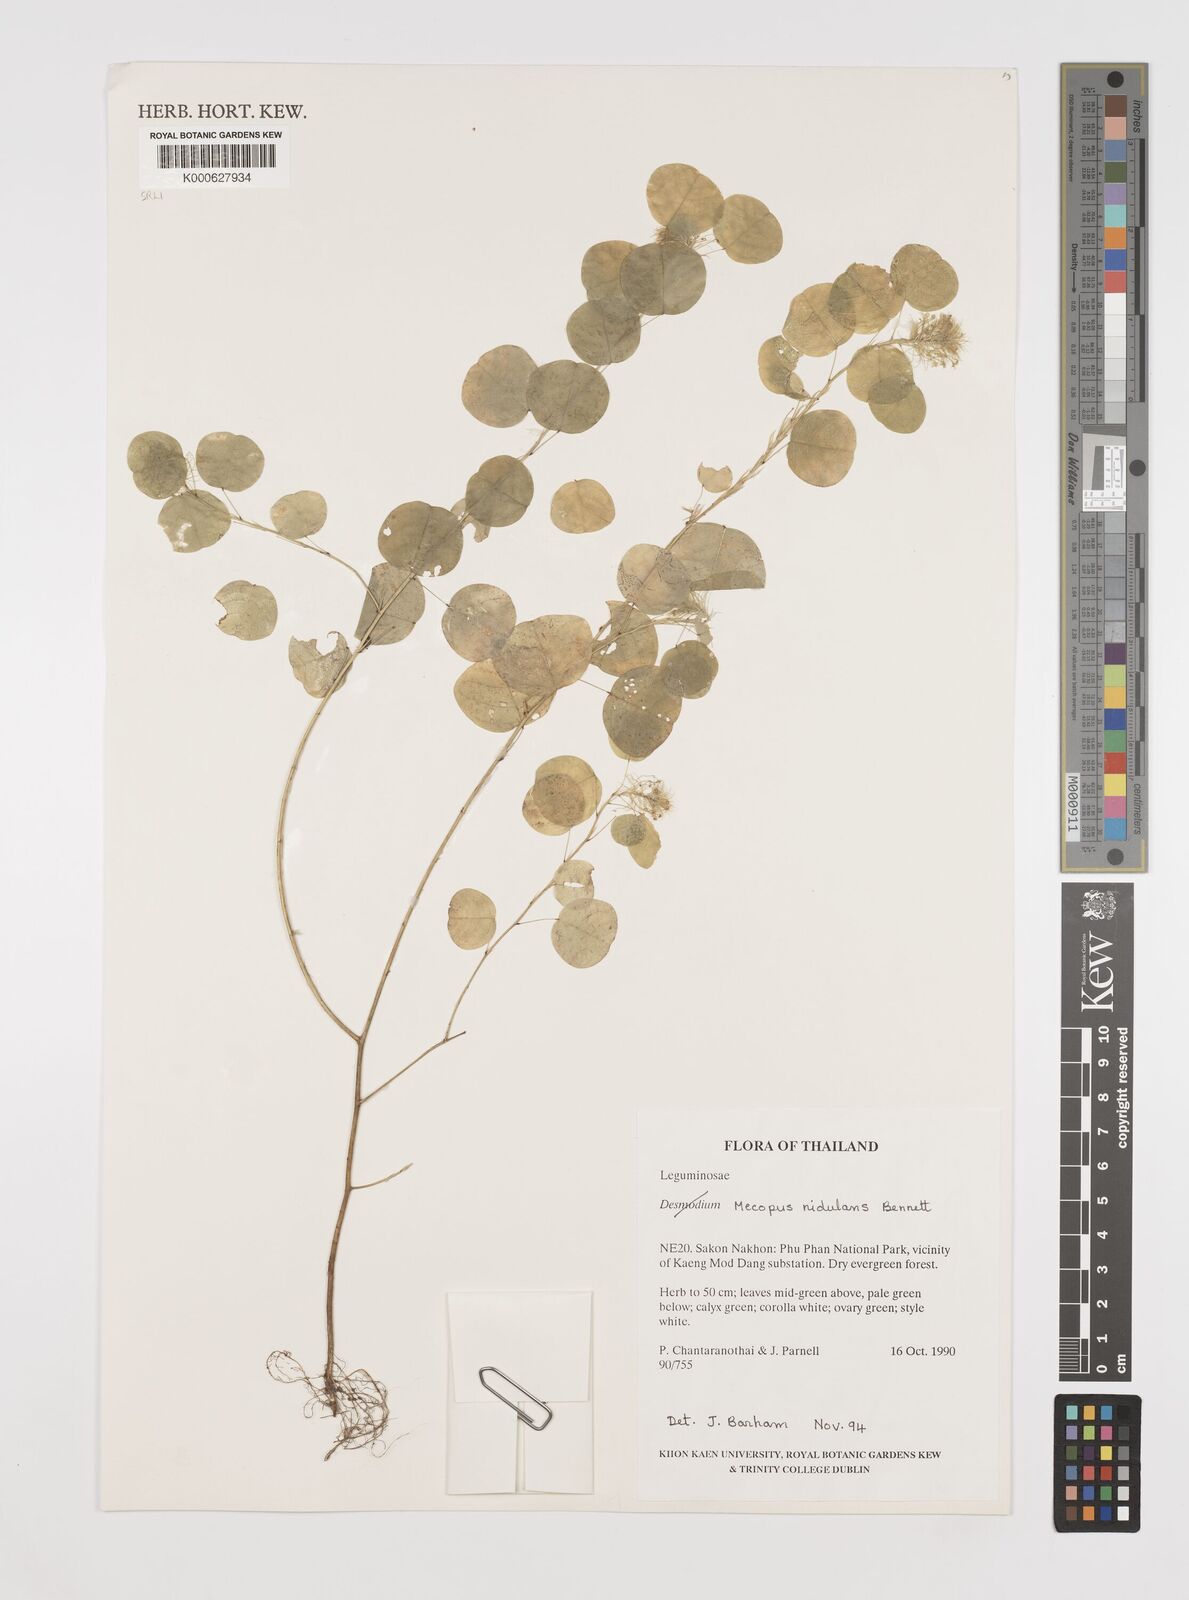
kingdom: Plantae
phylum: Tracheophyta
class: Magnoliopsida
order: Fabales
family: Fabaceae
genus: Mecopus
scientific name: Mecopus nidulans
